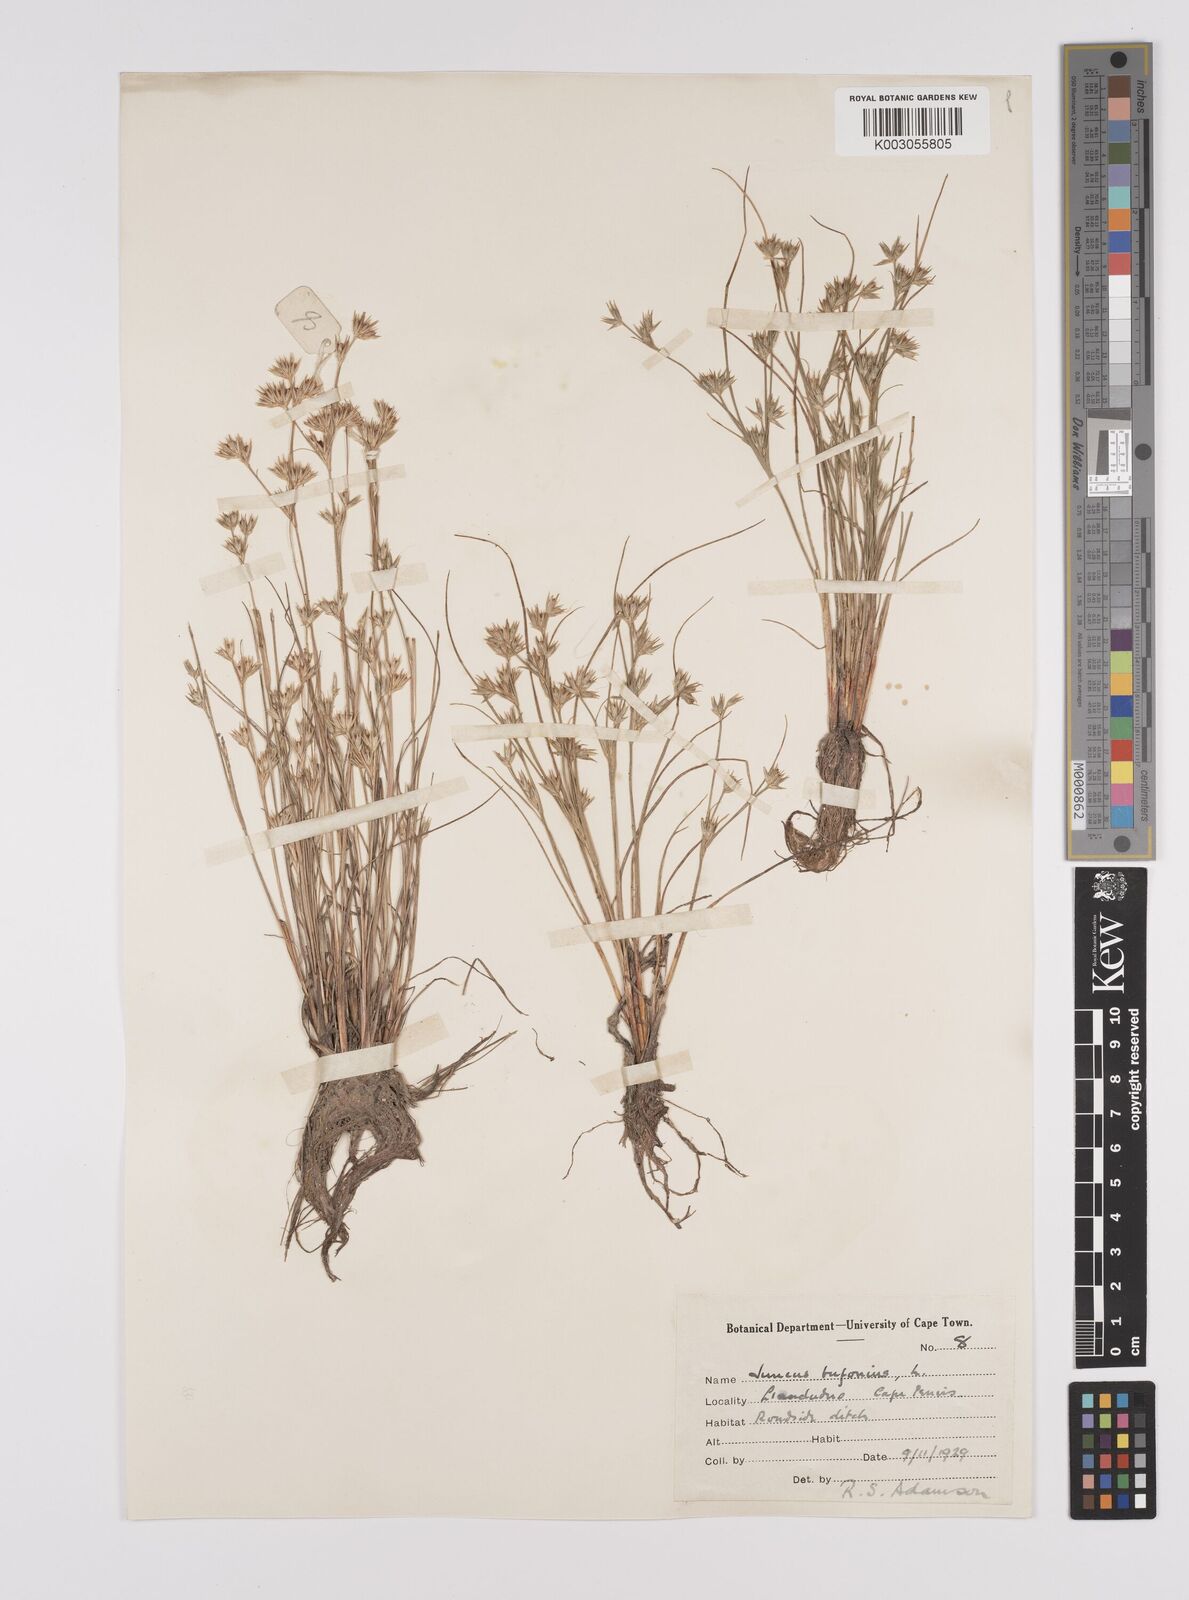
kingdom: Plantae
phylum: Tracheophyta
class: Liliopsida
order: Poales
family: Juncaceae
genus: Juncus
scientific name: Juncus bufonius
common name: Toad rush
